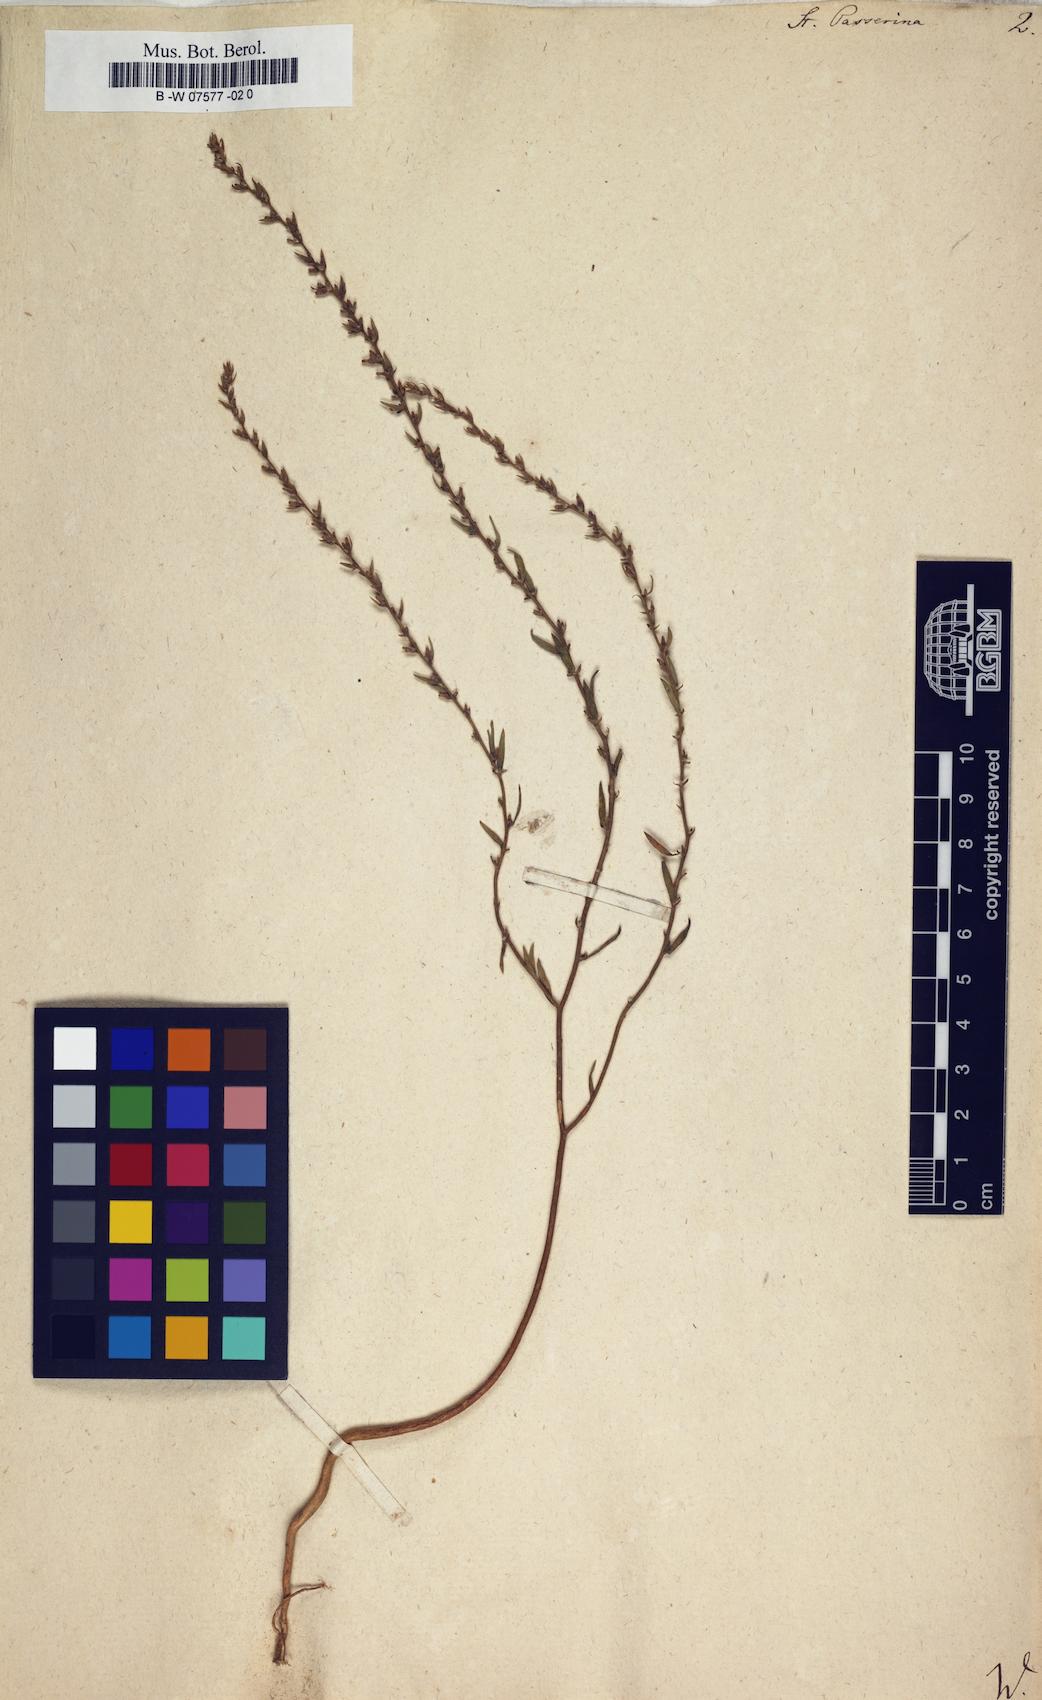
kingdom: Plantae
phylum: Tracheophyta
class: Magnoliopsida
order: Malvales
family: Thymelaeaceae
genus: Thymelaea
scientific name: Thymelaea passerina
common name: Annual thymelaea
